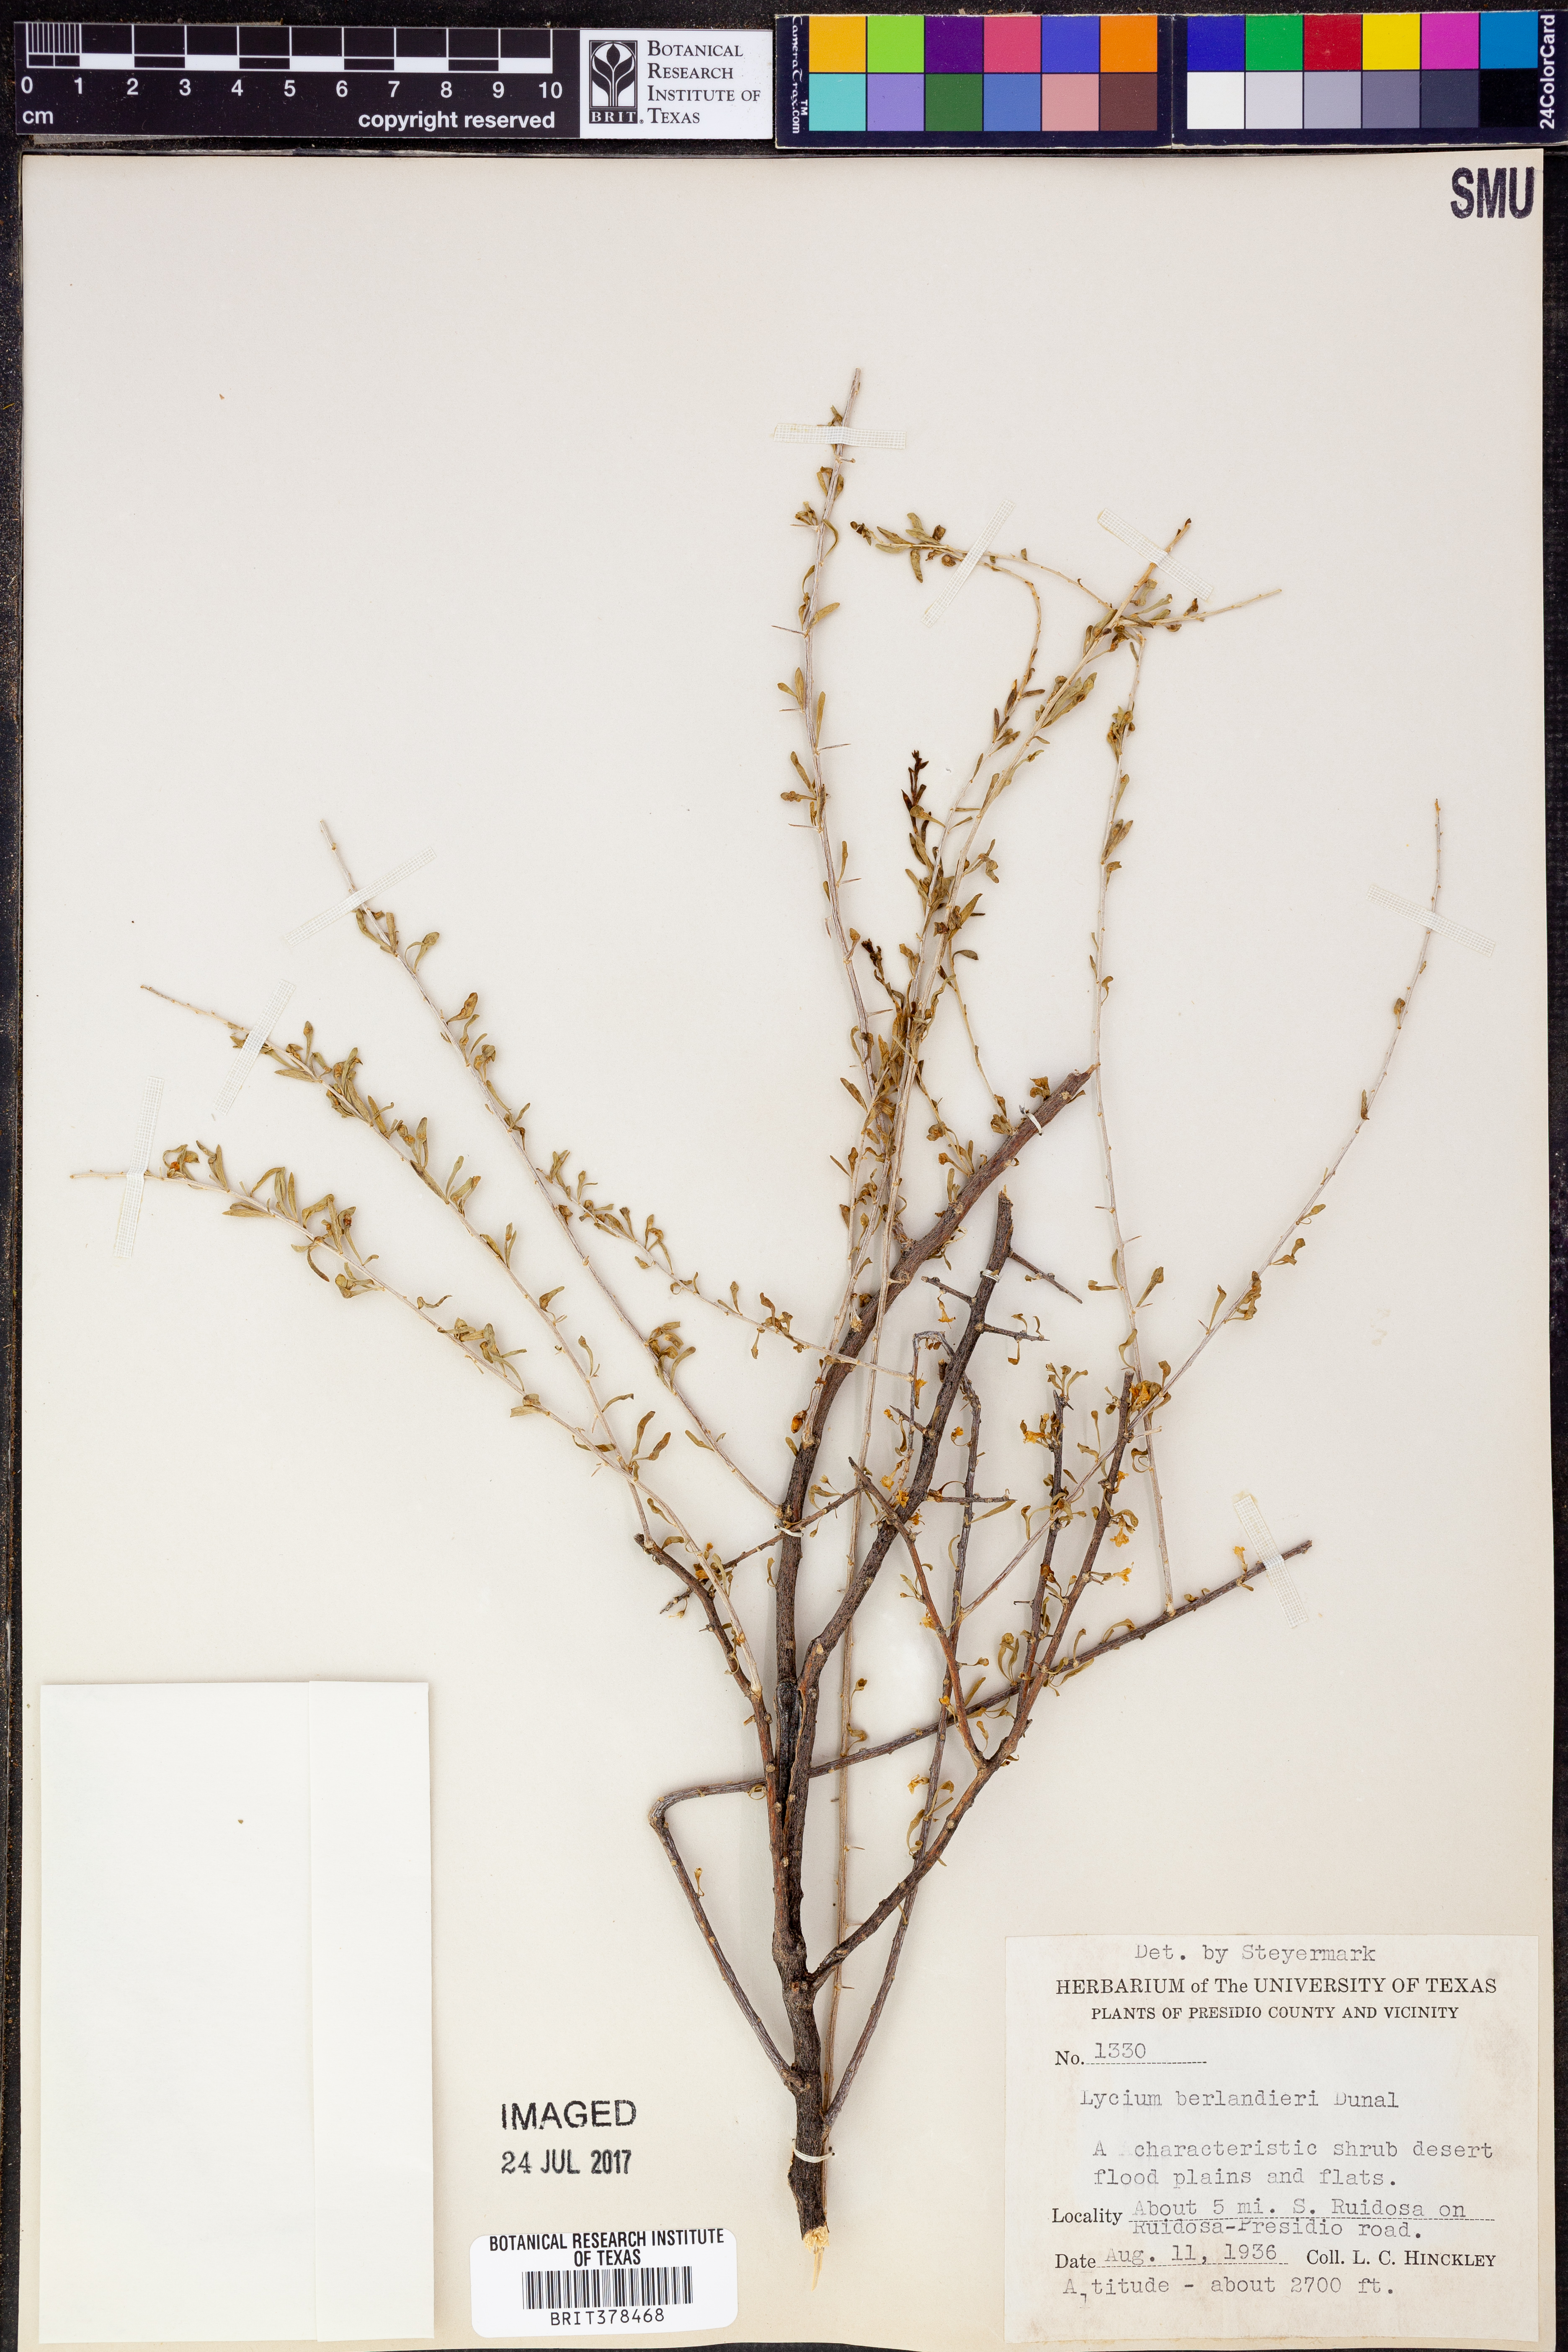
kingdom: Plantae
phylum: Tracheophyta
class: Magnoliopsida
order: Solanales
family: Solanaceae
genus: Lycium
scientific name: Lycium berlandieri
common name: Berlandier wolfberry
